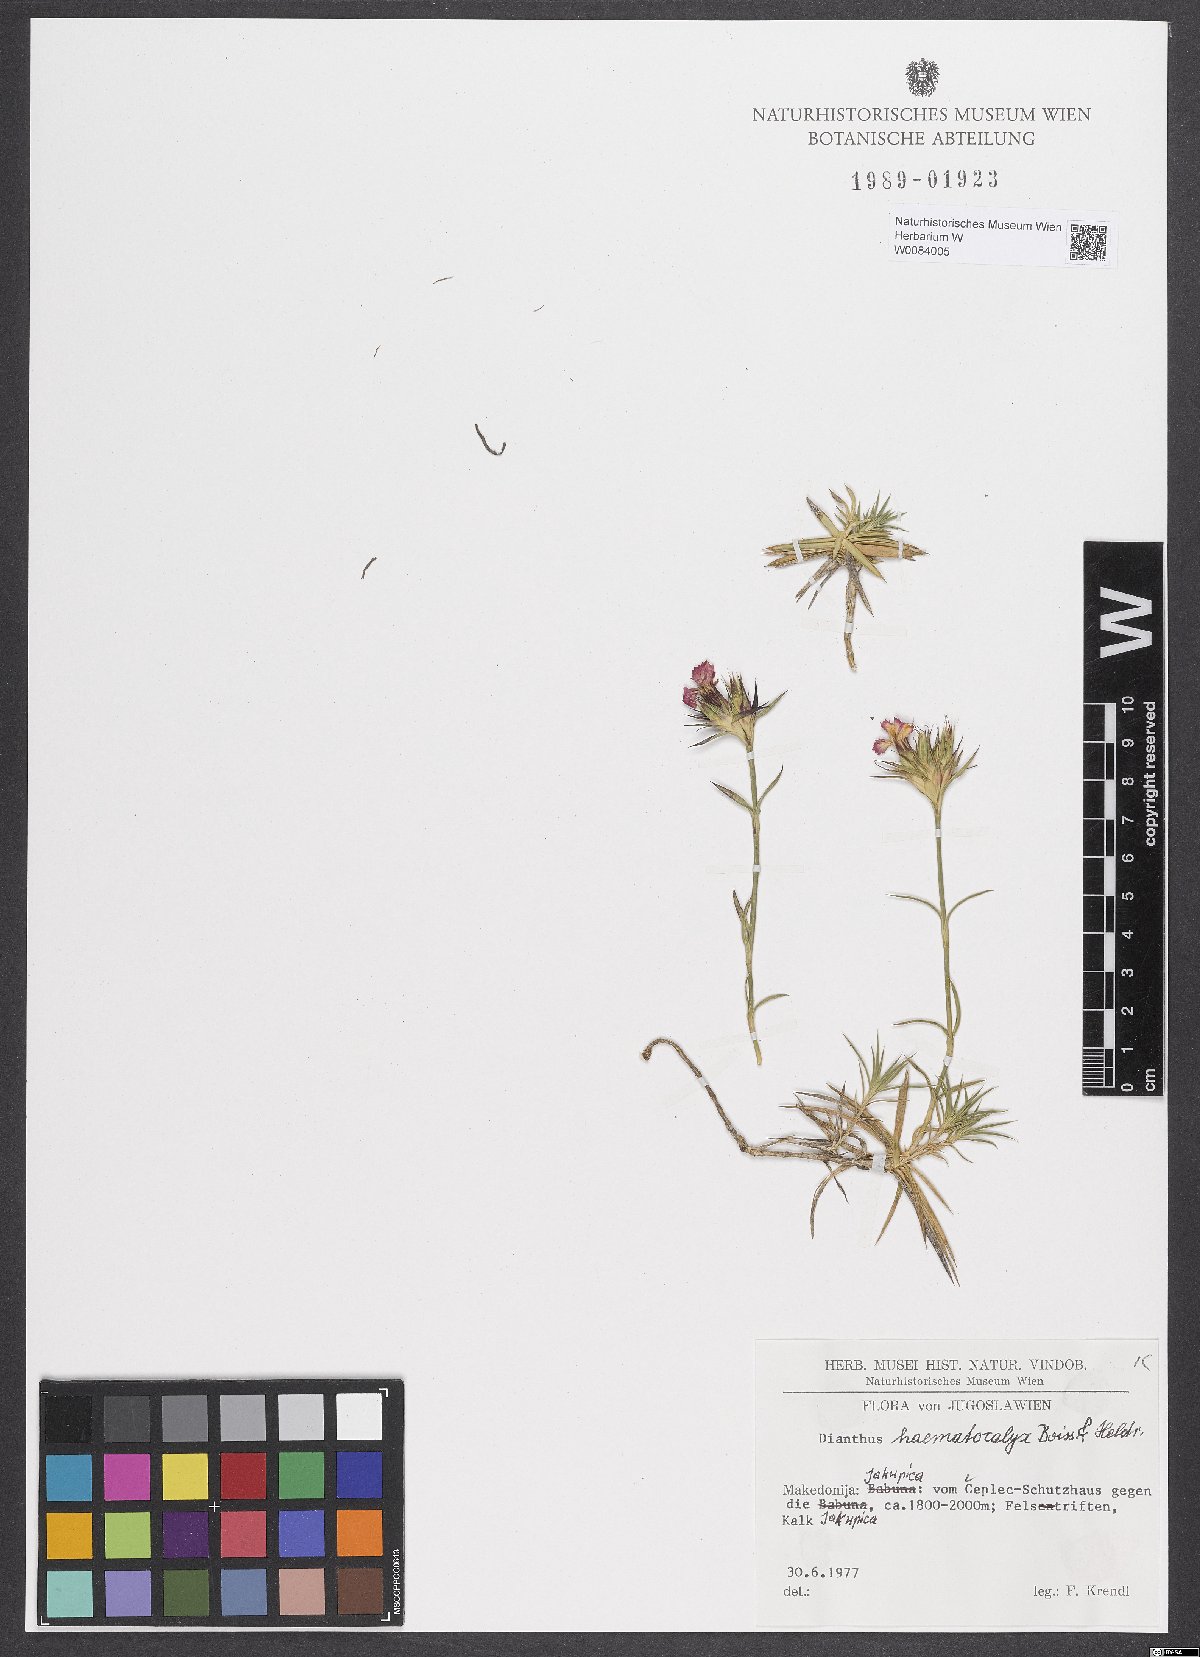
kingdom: Plantae
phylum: Tracheophyta
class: Magnoliopsida
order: Caryophyllales
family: Caryophyllaceae
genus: Dianthus
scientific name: Dianthus haematocalyx
